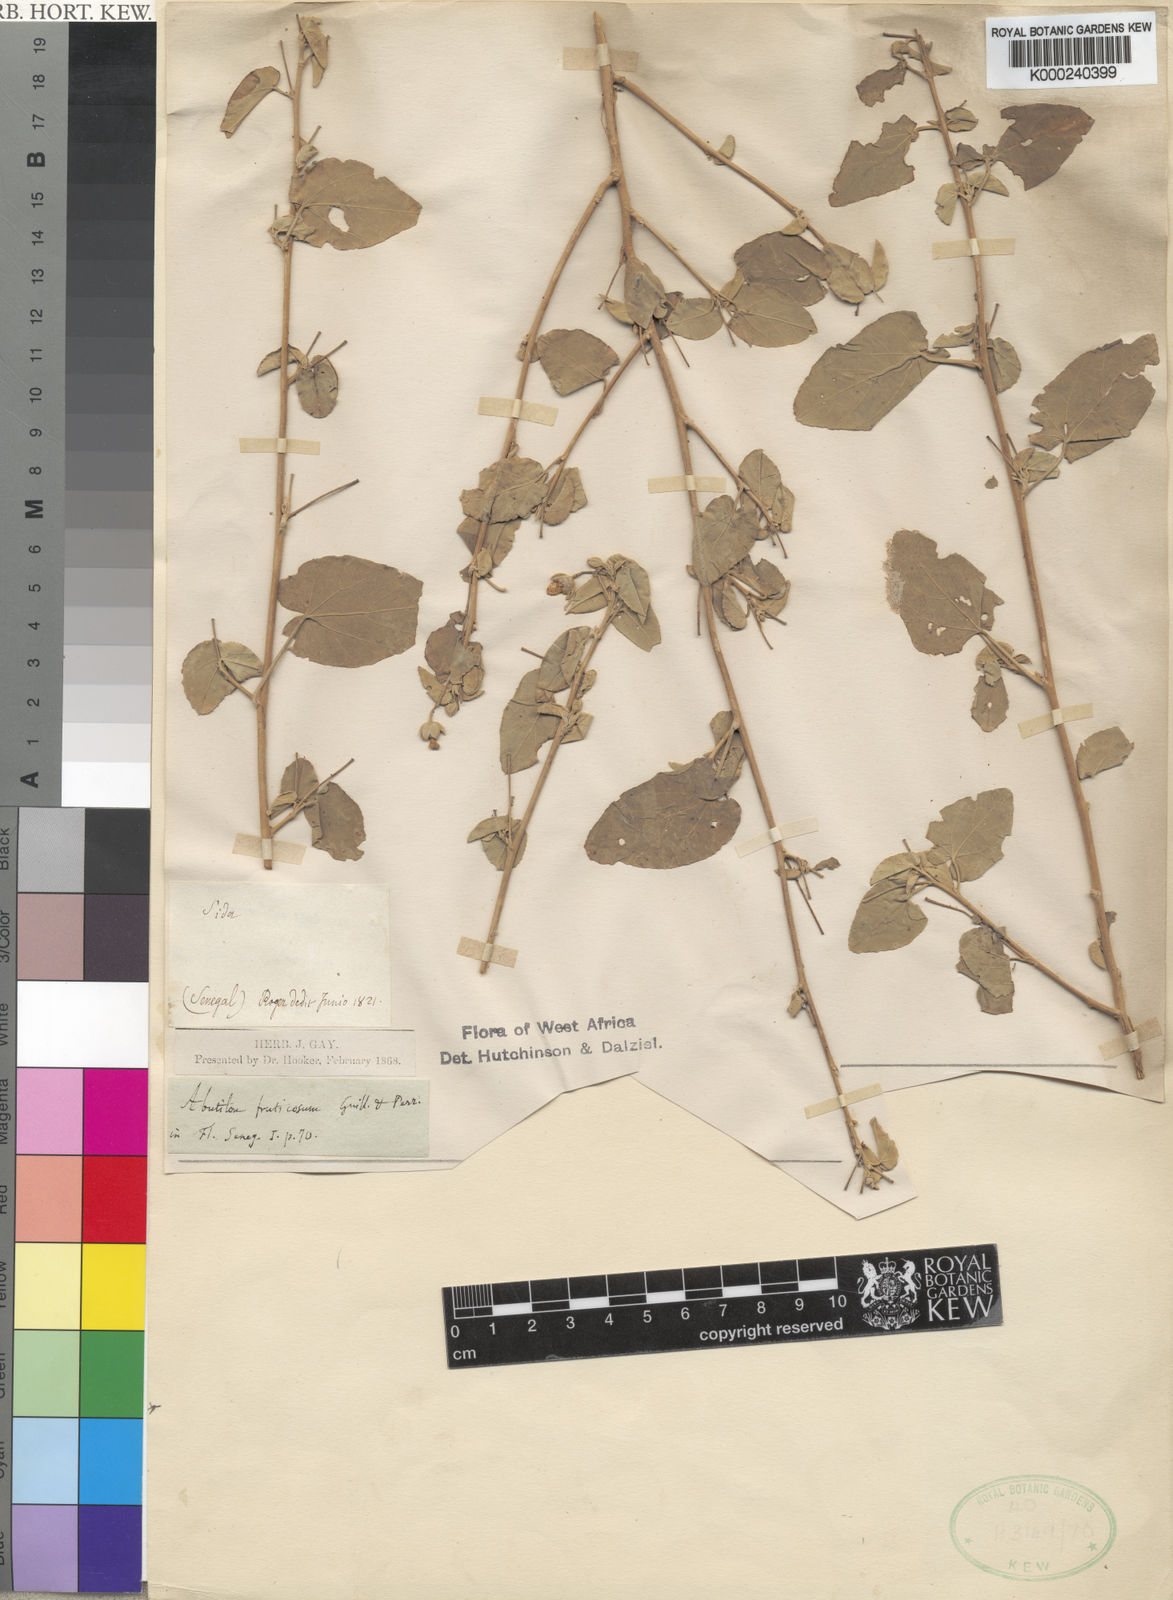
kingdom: Plantae
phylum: Tracheophyta
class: Magnoliopsida
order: Malvales
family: Malvaceae
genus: Abutilon
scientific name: Abutilon fruticosum
